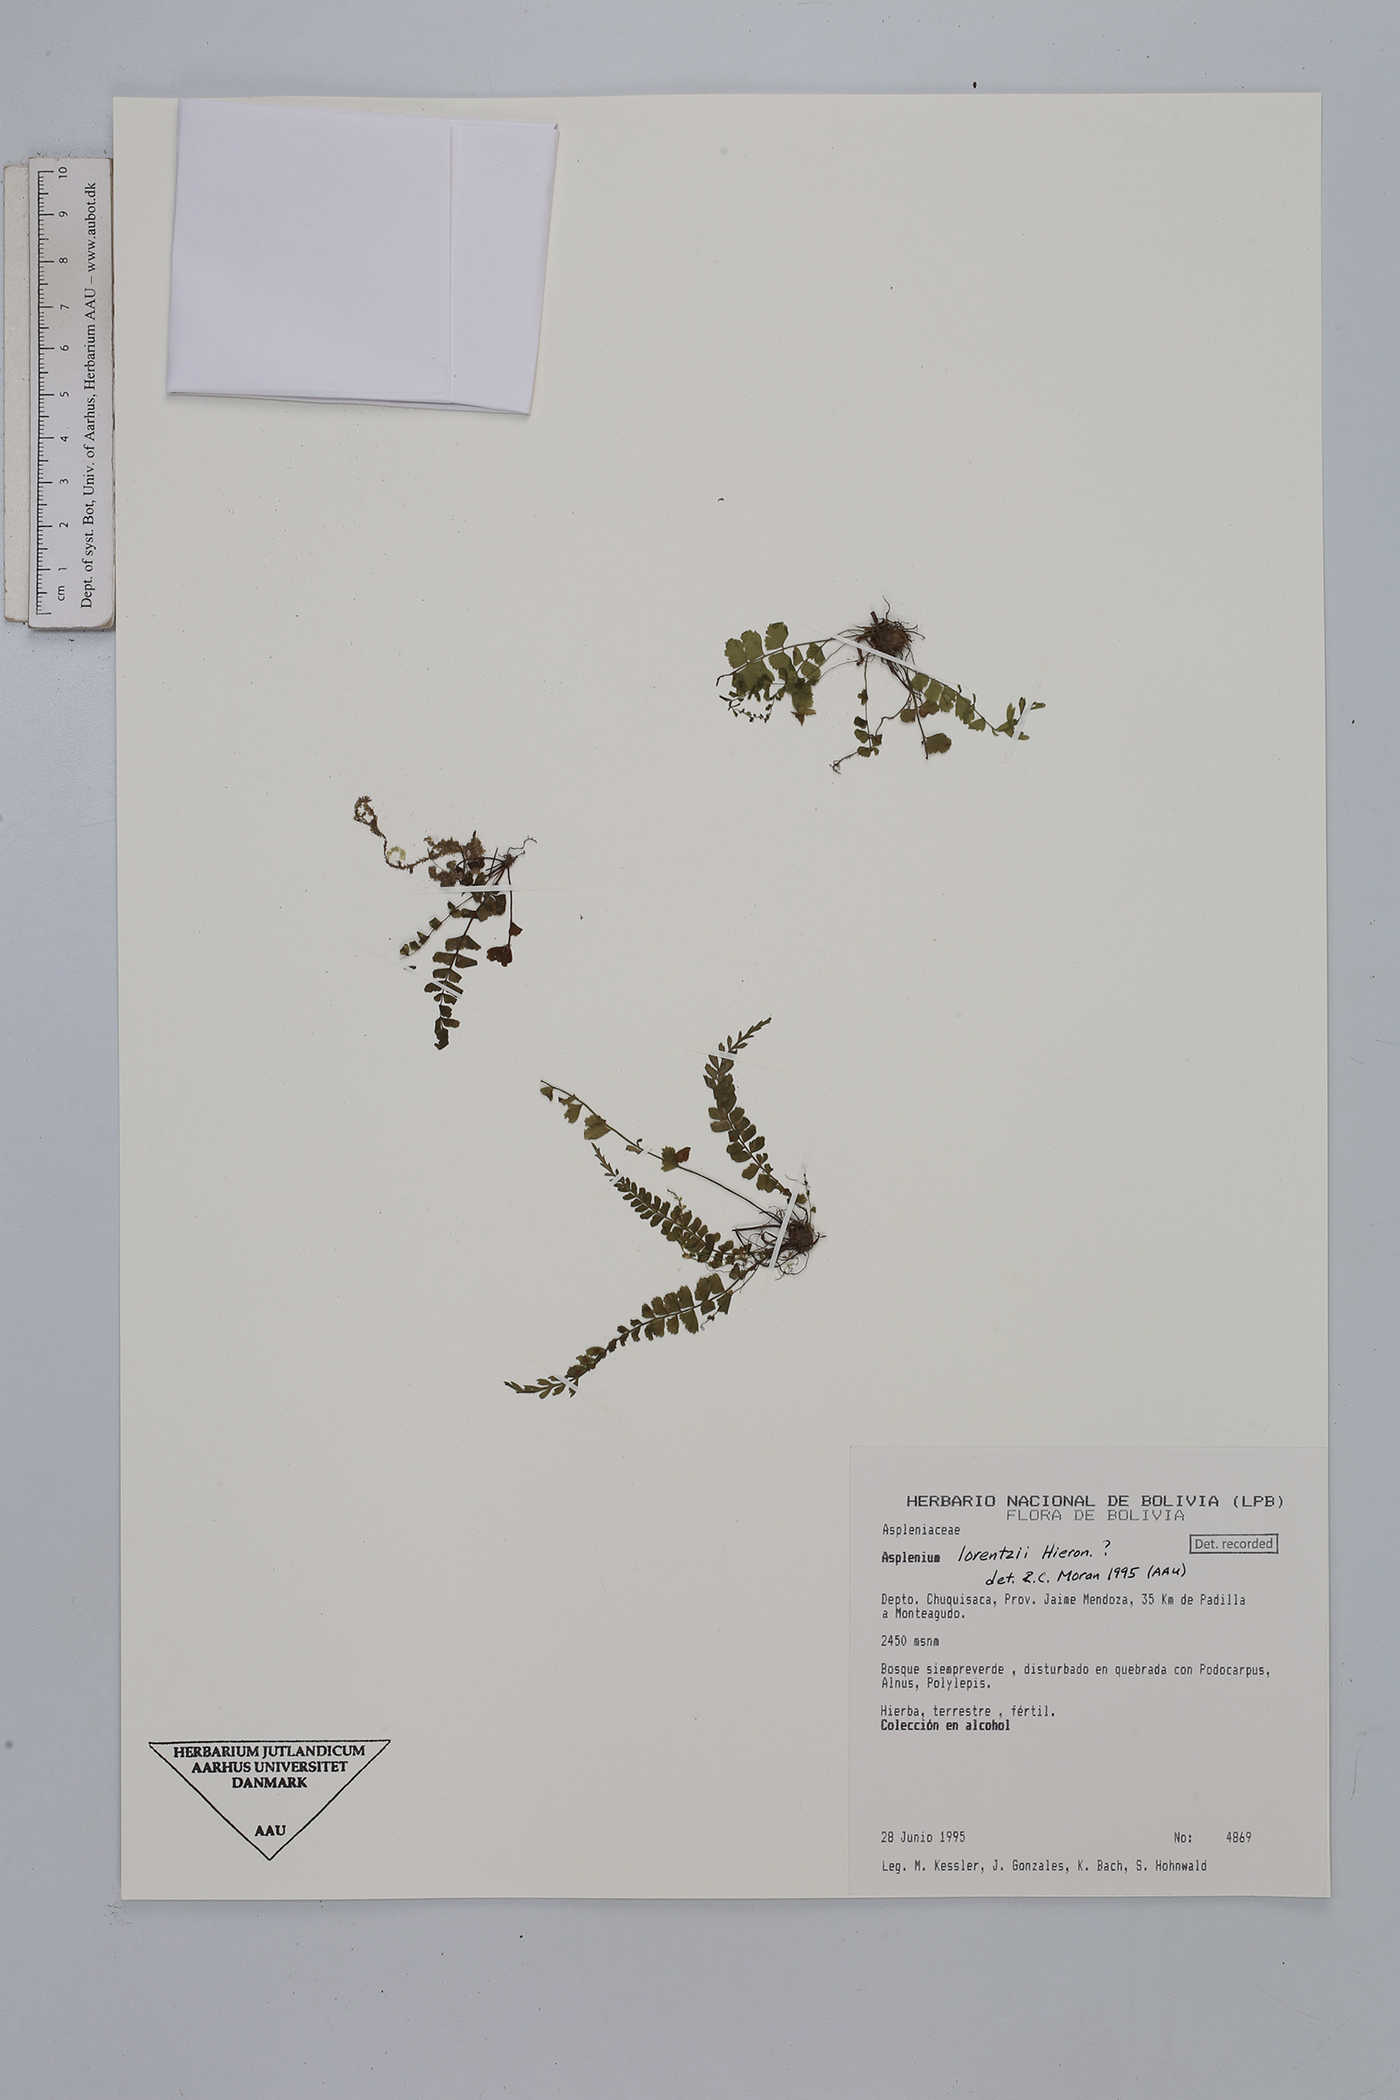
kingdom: Plantae
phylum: Tracheophyta
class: Polypodiopsida
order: Polypodiales
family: Aspleniaceae
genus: Asplenium
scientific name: Asplenium lorentzii
